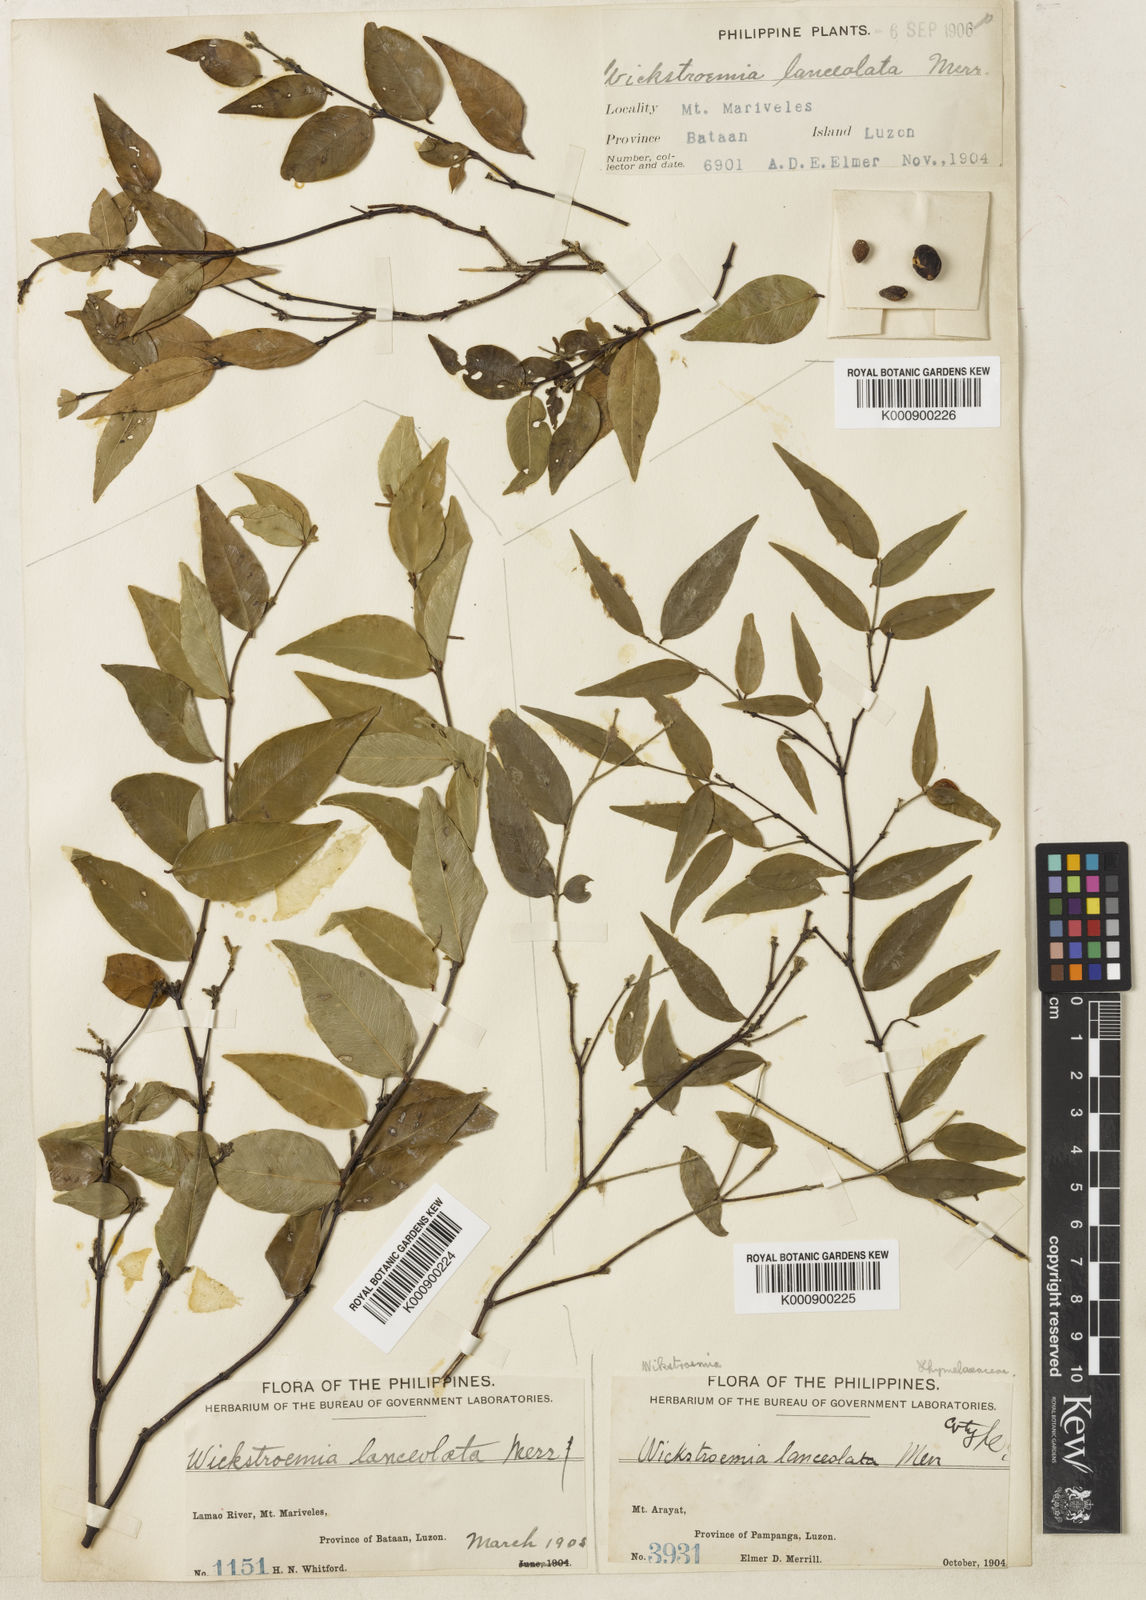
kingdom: Plantae
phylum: Tracheophyta
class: Magnoliopsida
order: Malvales
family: Thymelaeaceae
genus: Wikstroemia
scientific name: Wikstroemia lanceolata
